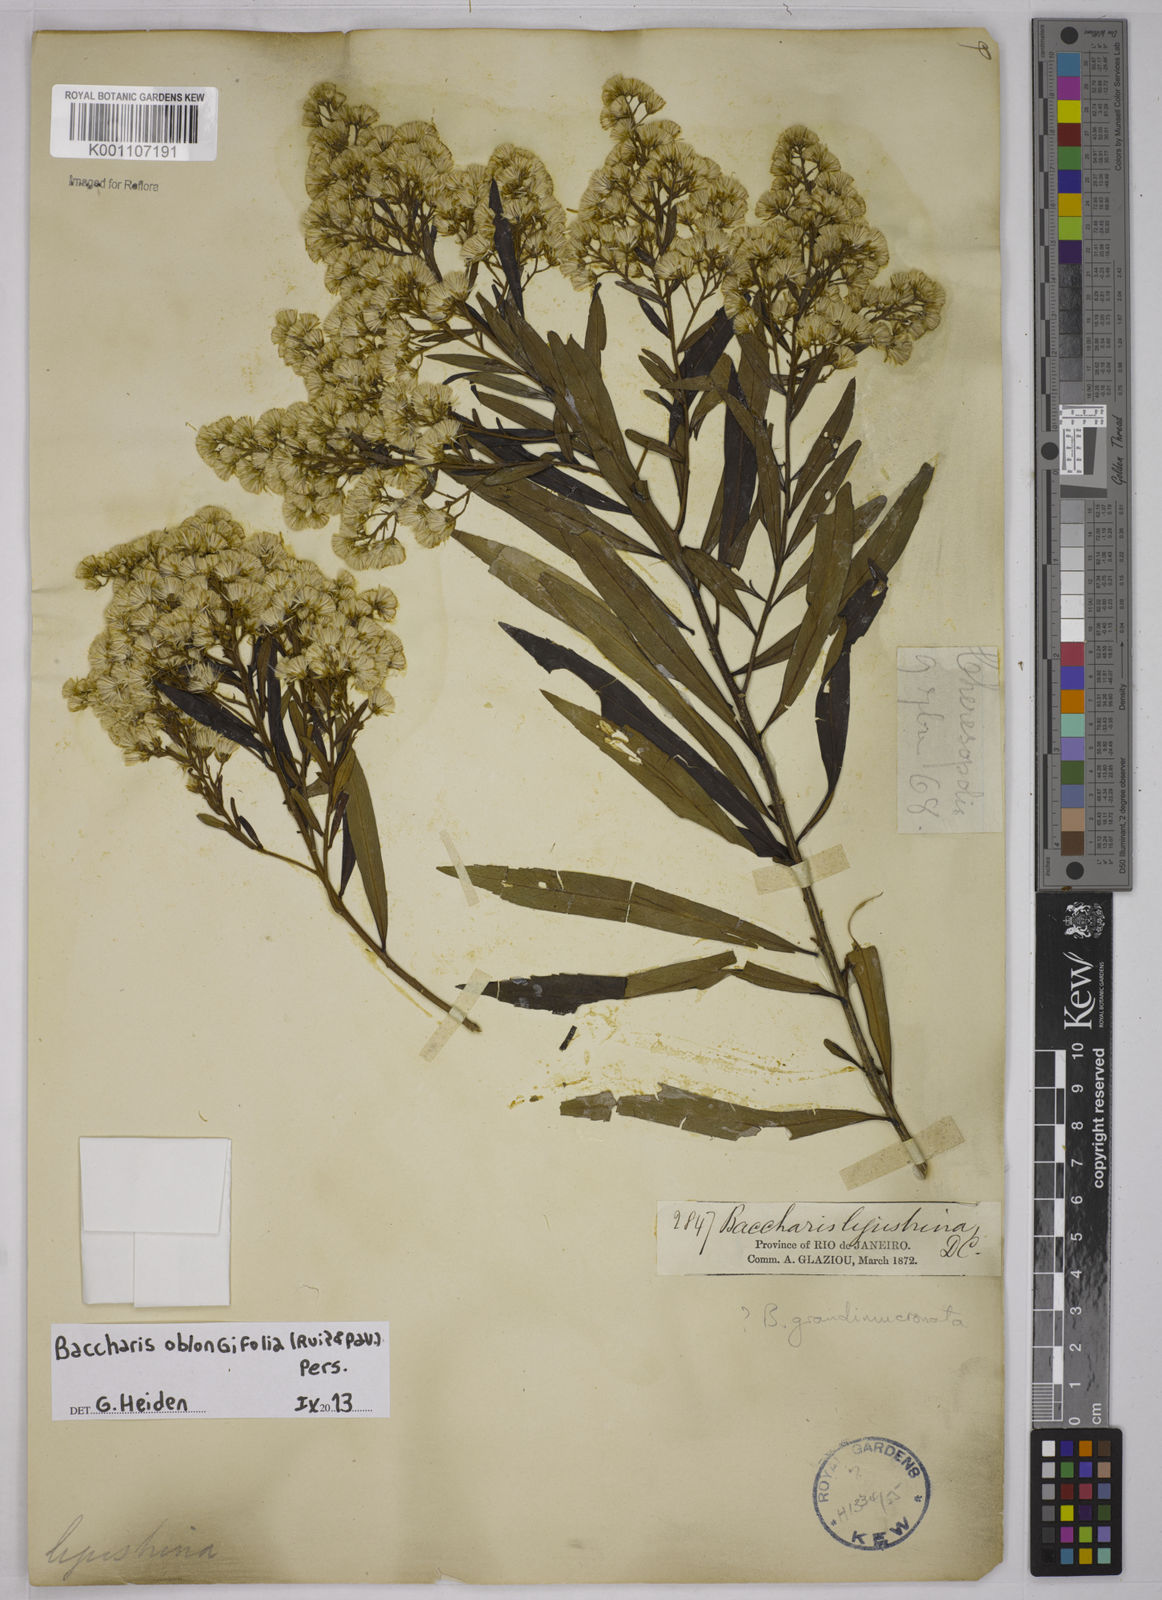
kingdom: Plantae
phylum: Tracheophyta
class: Magnoliopsida
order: Asterales
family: Asteraceae
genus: Baccharis
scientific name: Baccharis oblongifolia
